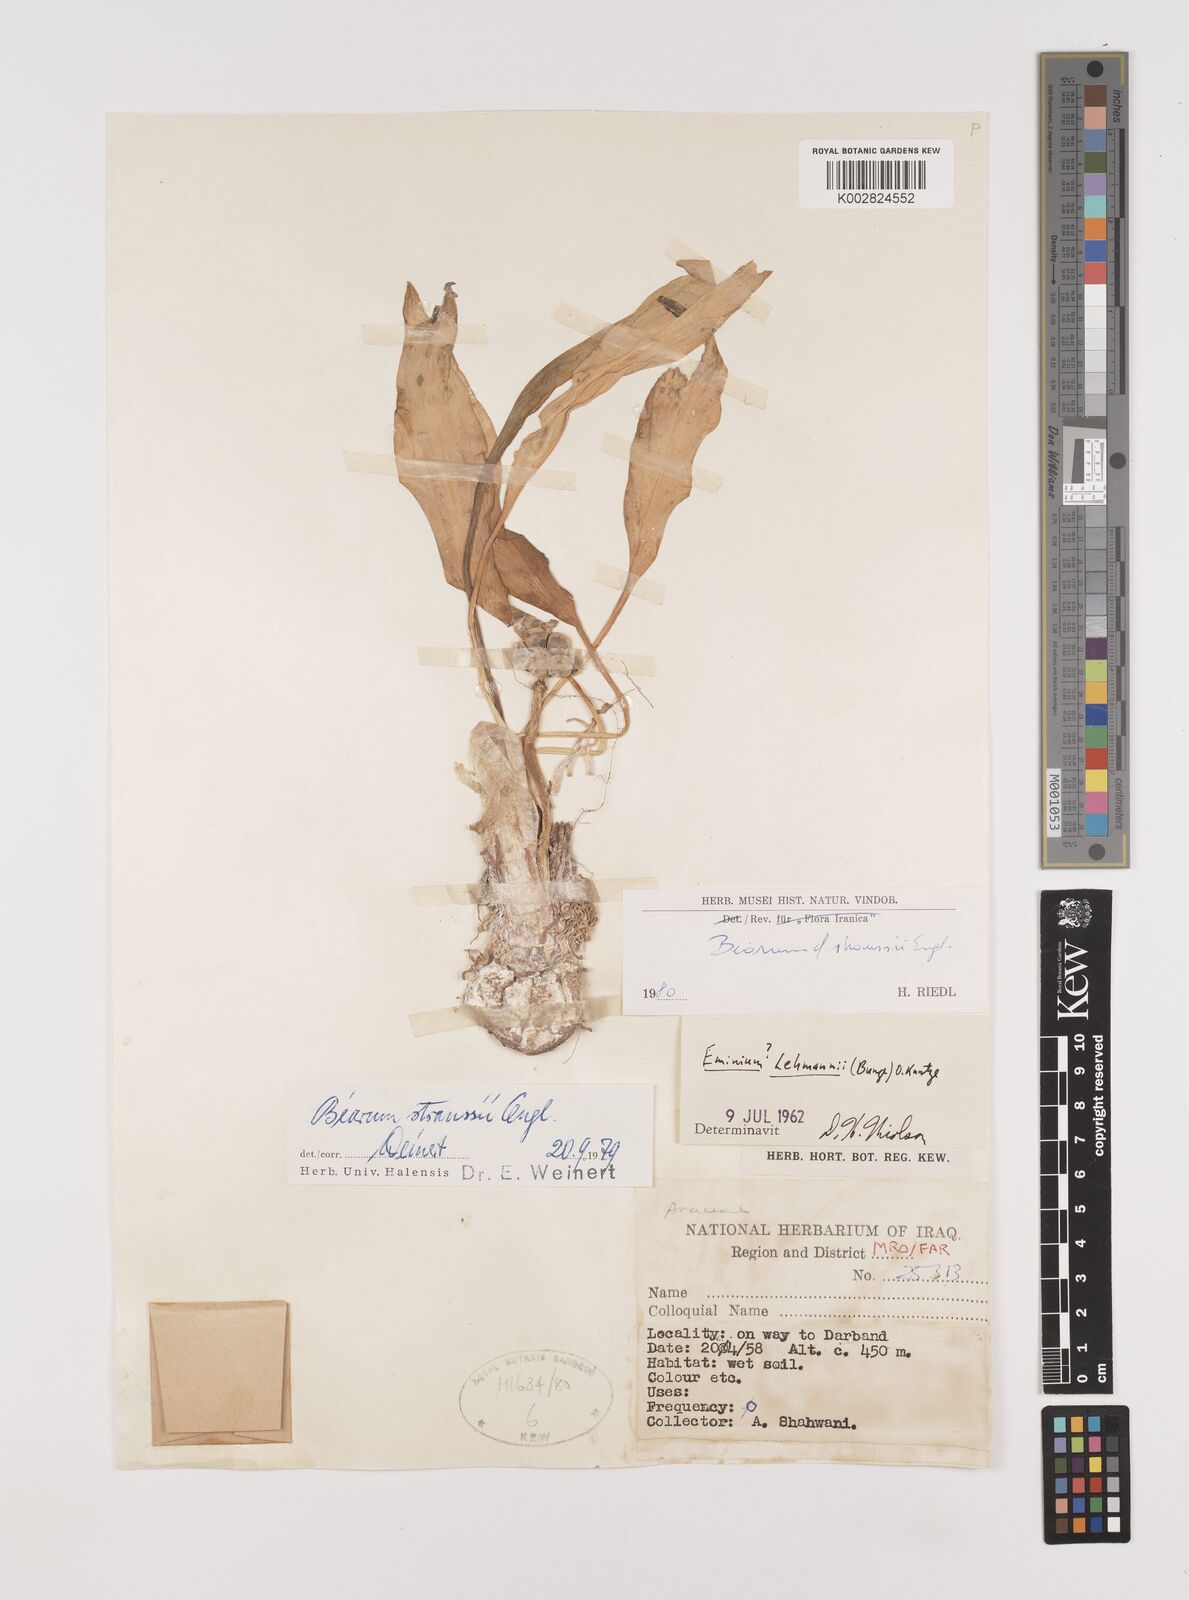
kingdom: Plantae
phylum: Tracheophyta
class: Liliopsida
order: Alismatales
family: Araceae
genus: Biarum
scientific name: Biarum straussii
